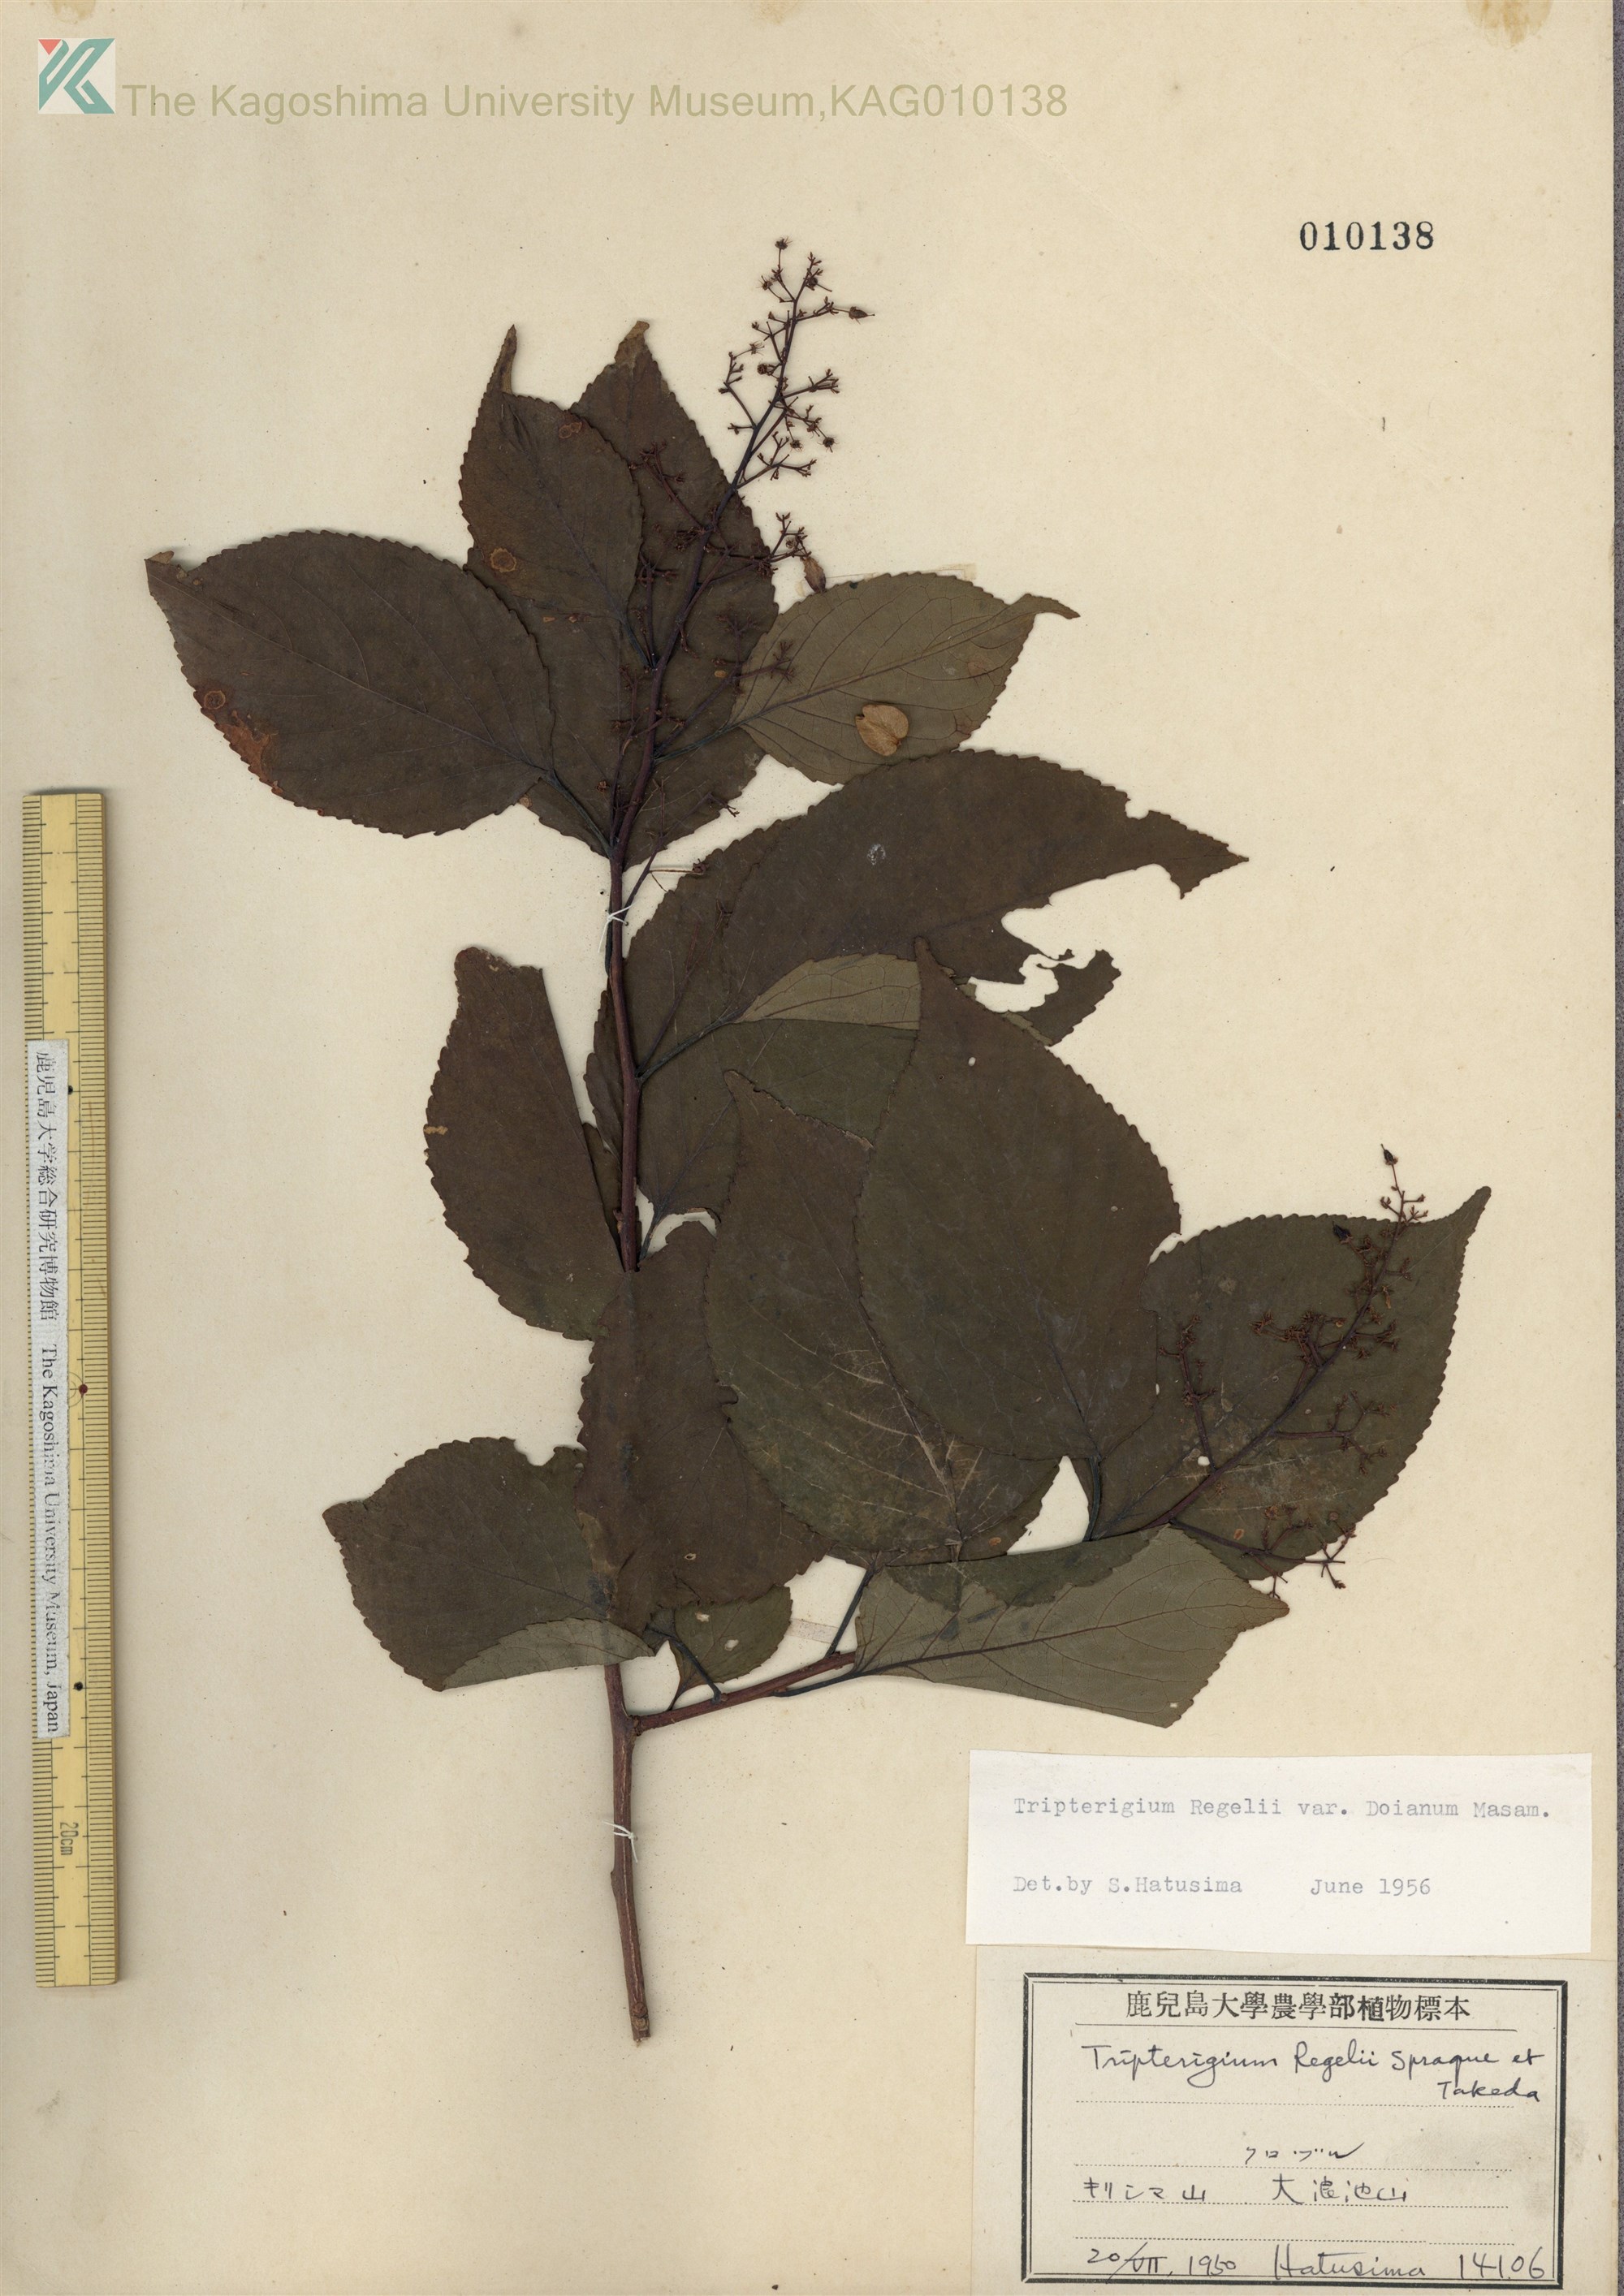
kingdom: Plantae
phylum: Tracheophyta
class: Magnoliopsida
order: Celastrales
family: Celastraceae
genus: Tripterygium
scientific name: Tripterygium doianum
